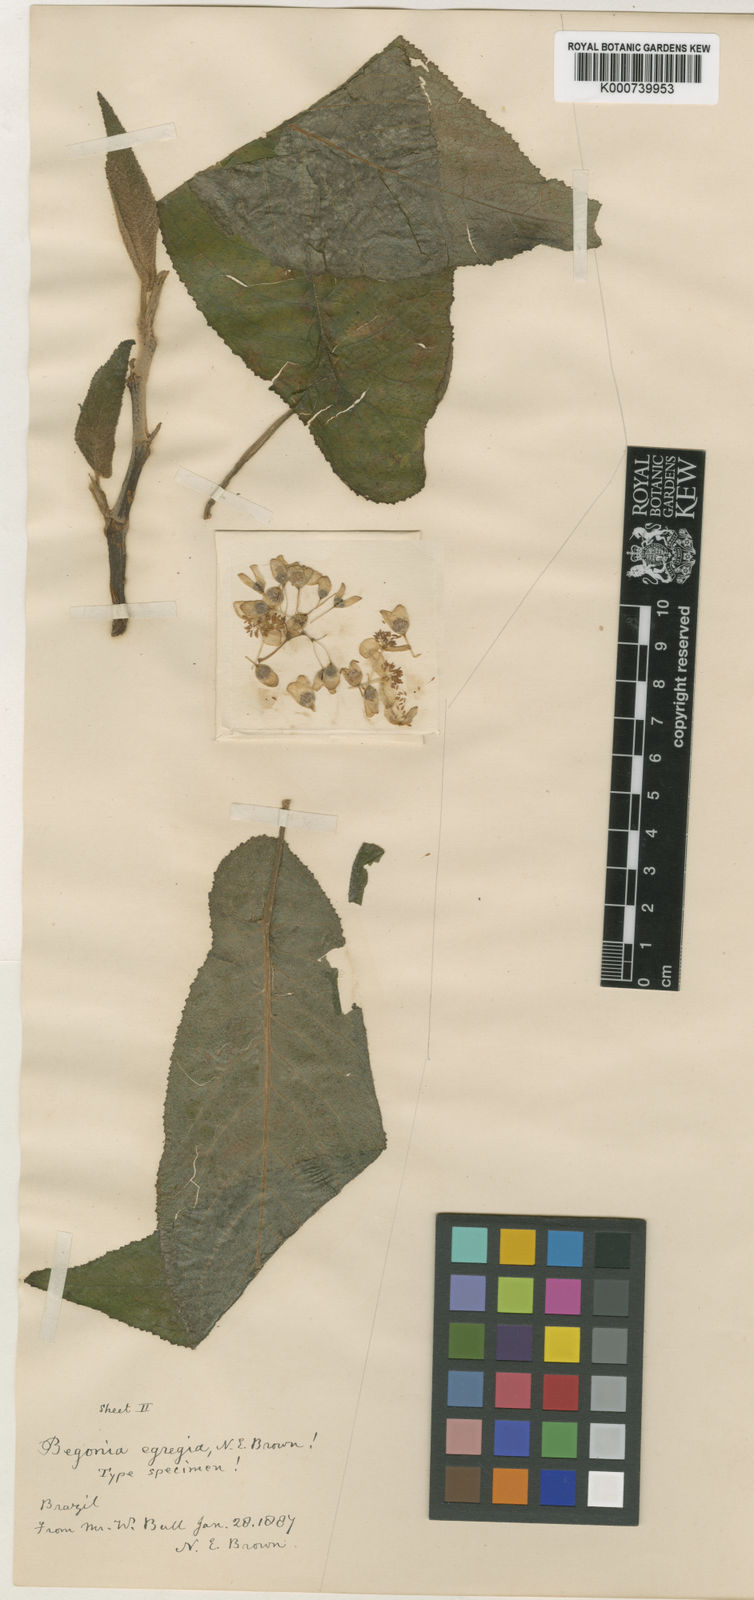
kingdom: Plantae
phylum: Tracheophyta
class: Magnoliopsida
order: Cucurbitales
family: Begoniaceae
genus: Begonia
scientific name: Begonia egregia
